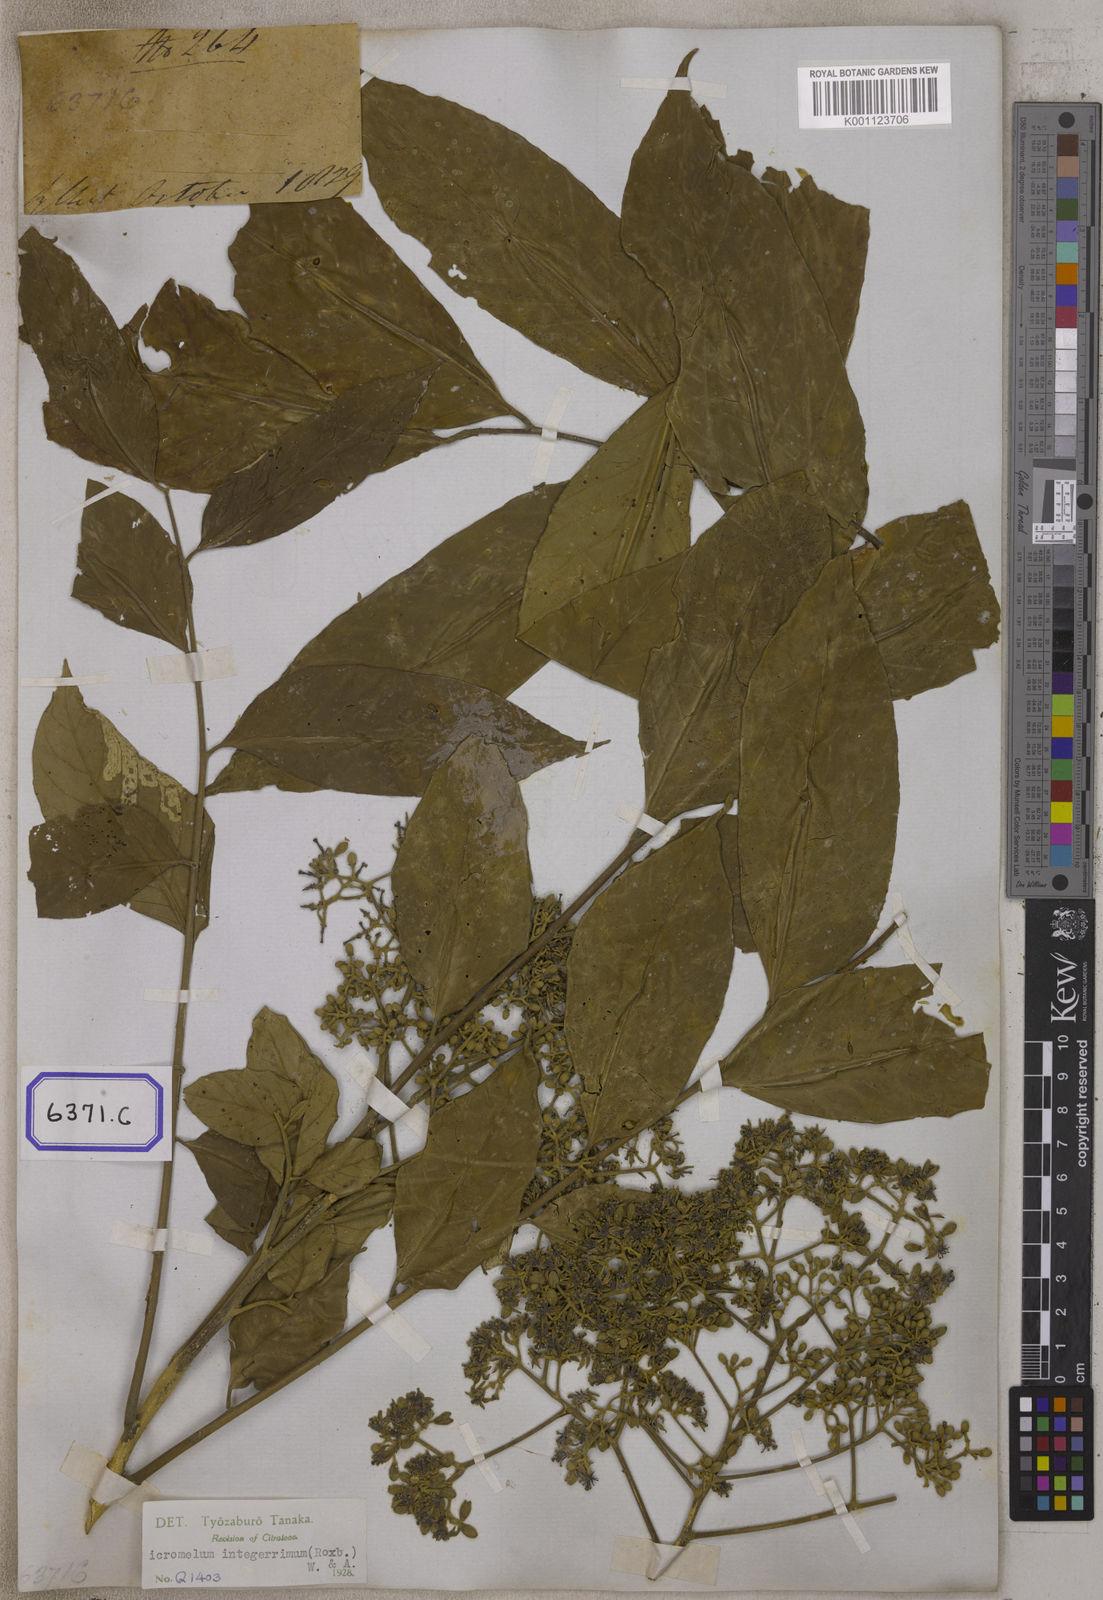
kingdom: Plantae
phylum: Tracheophyta
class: Magnoliopsida
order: Sapindales
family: Rutaceae
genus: Bergera
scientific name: Bergera
